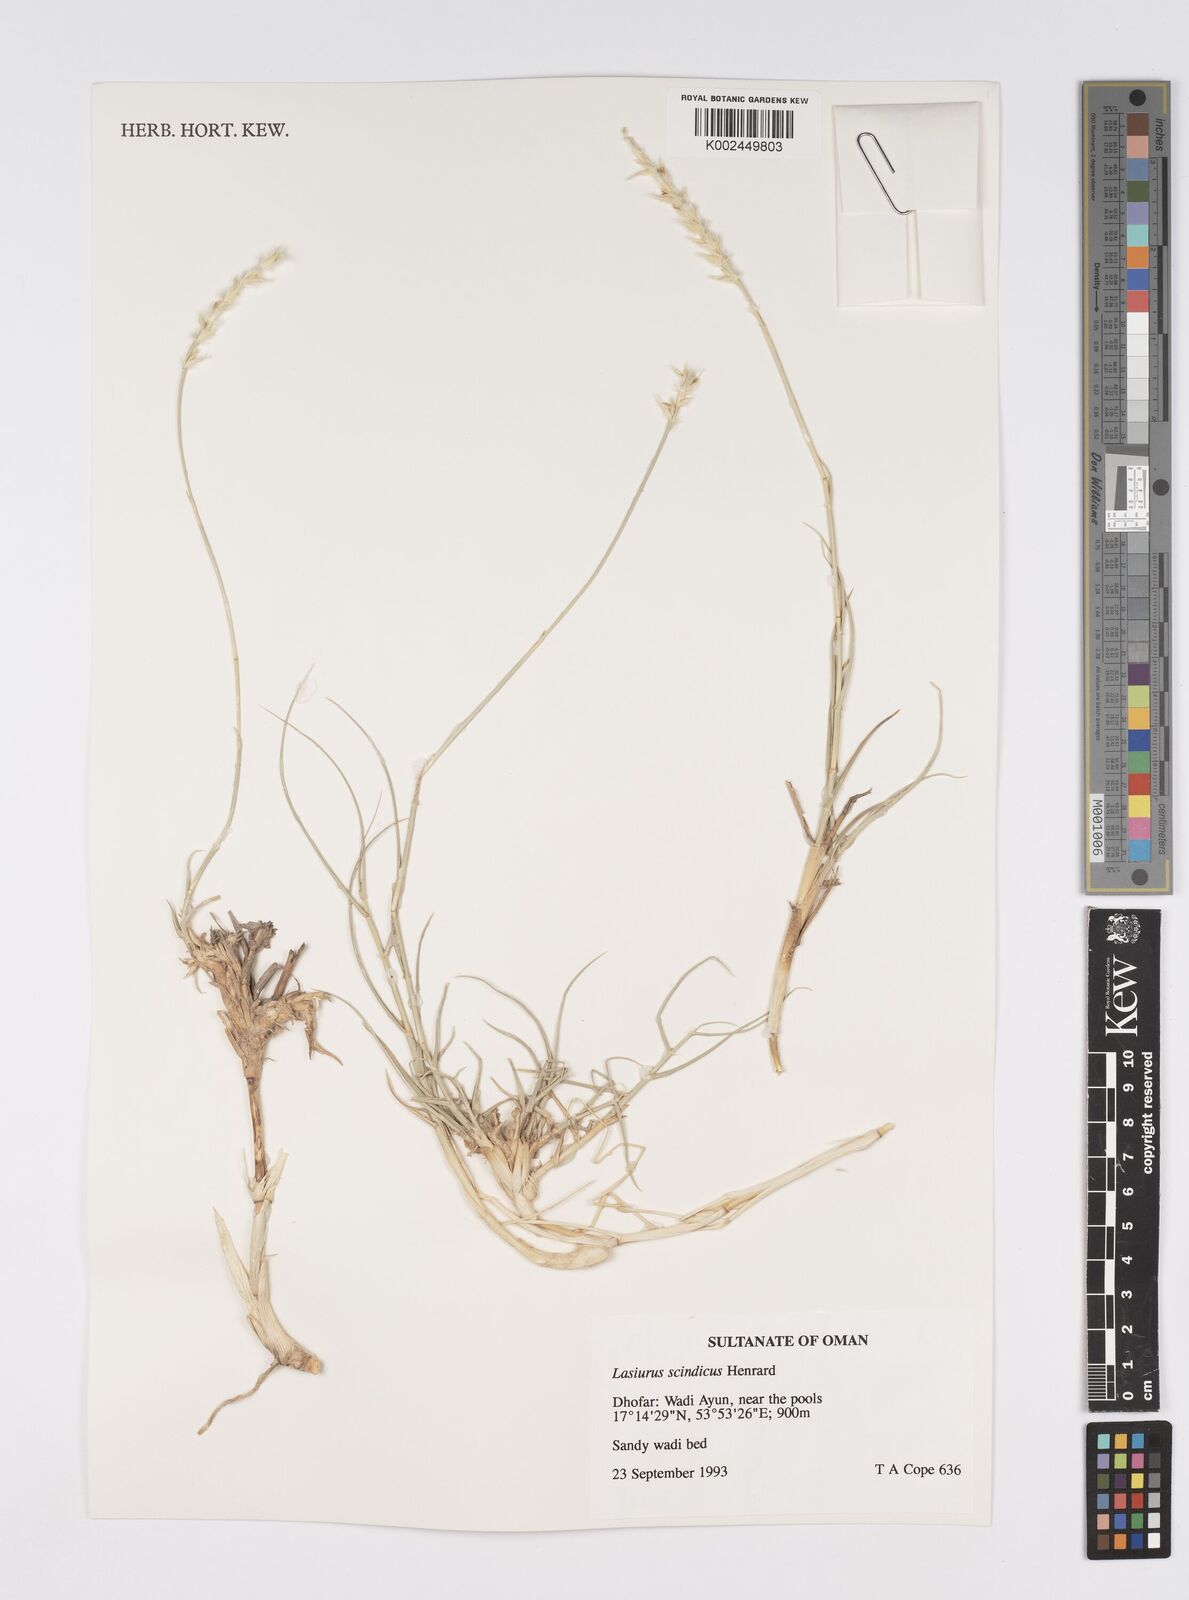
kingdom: Plantae
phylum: Tracheophyta
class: Liliopsida
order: Poales
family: Poaceae
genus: Lasiurus
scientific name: Lasiurus scindicus
